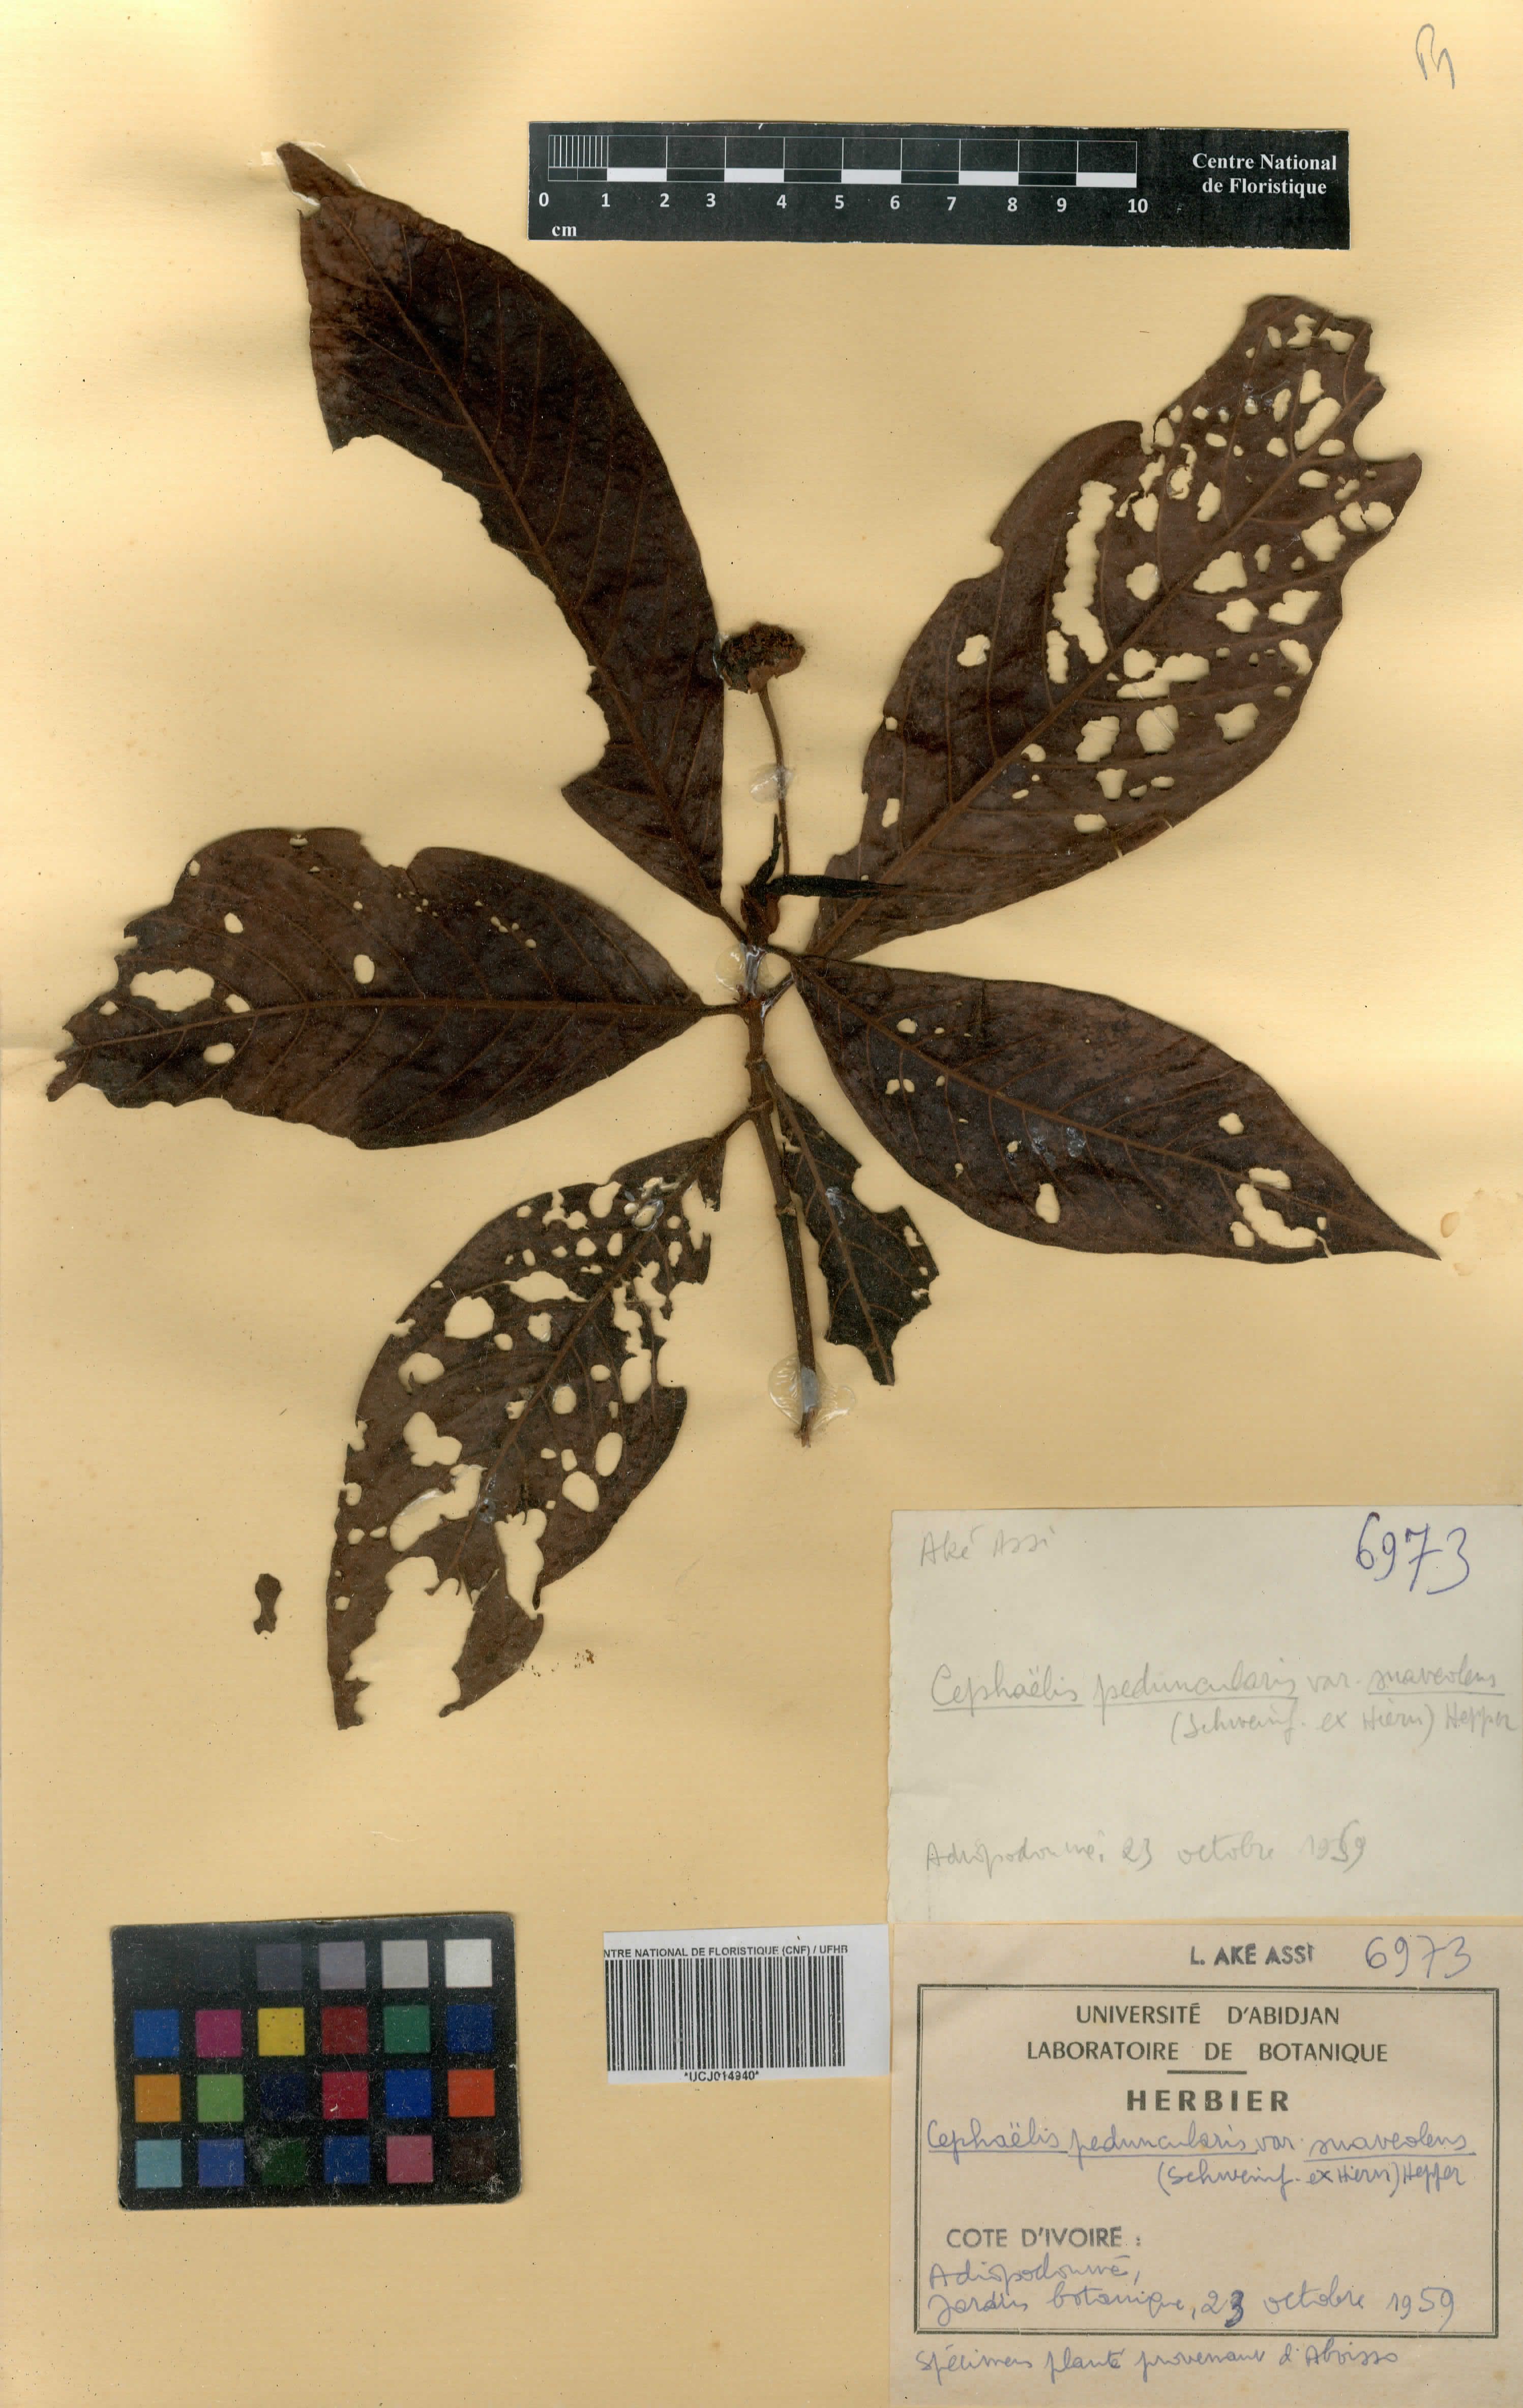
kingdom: Plantae
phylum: Tracheophyta
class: Magnoliopsida
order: Gentianales
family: Rubiaceae
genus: Psychotria
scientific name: Psychotria peduncularis
